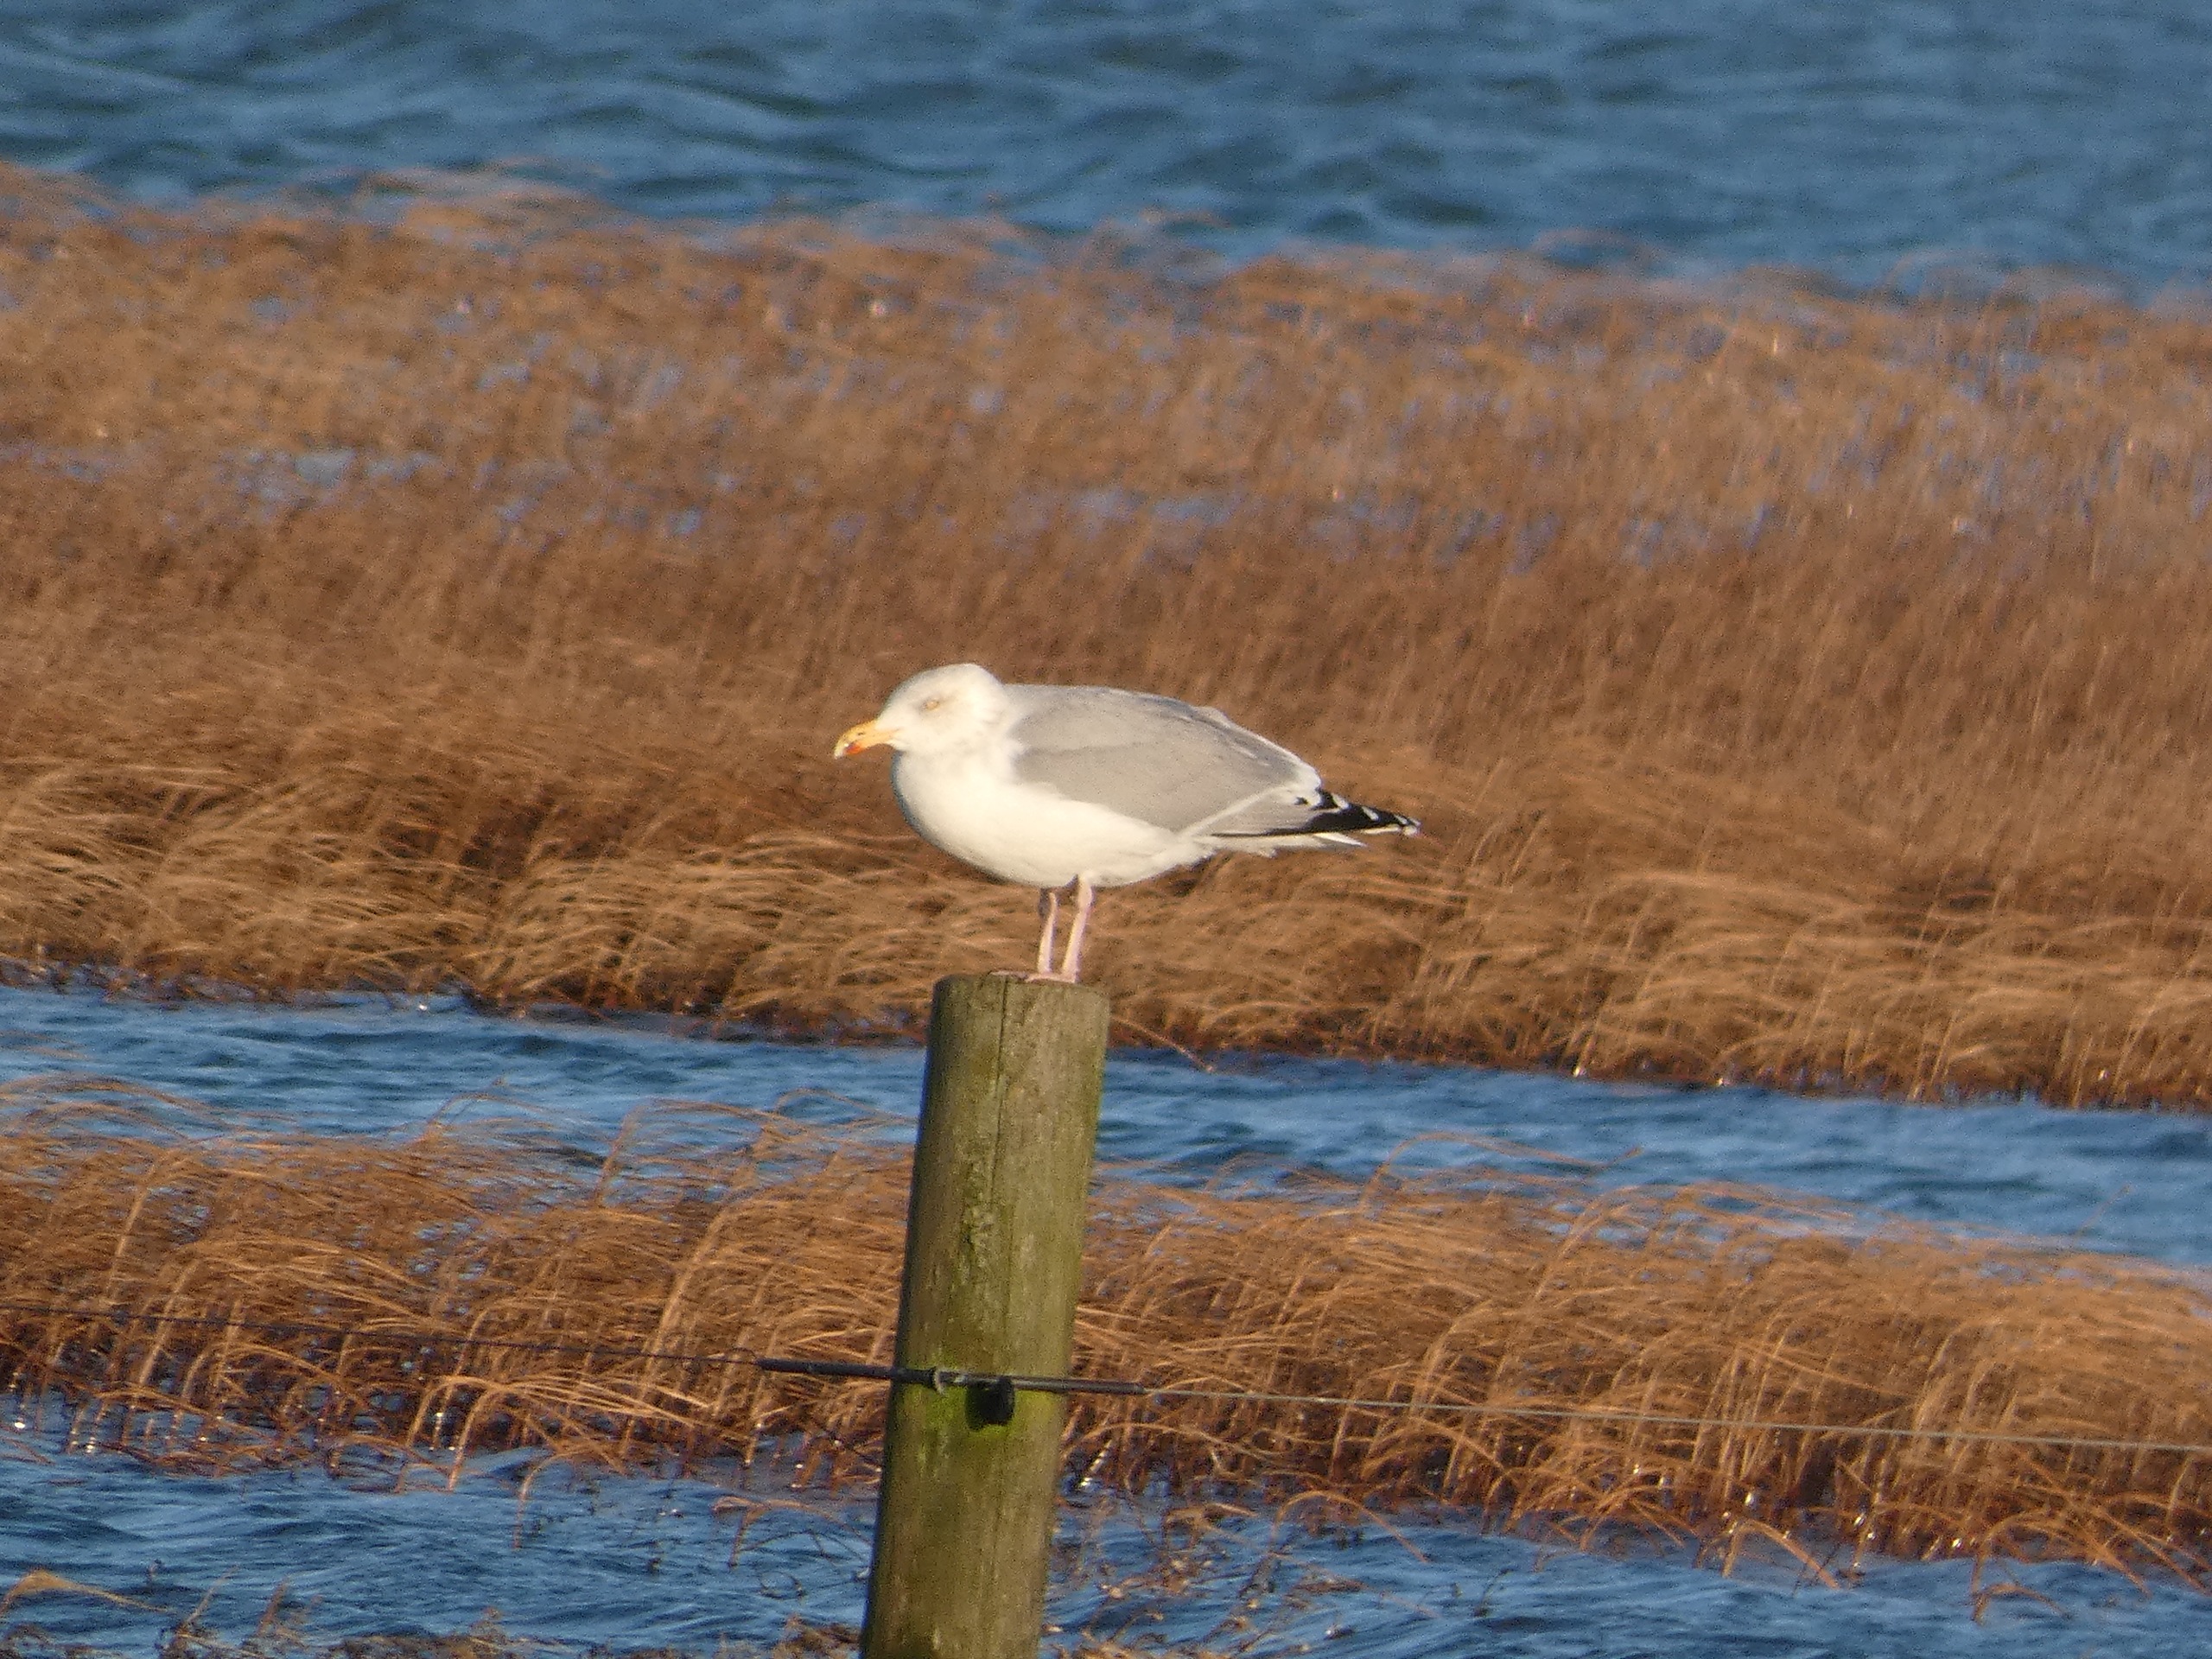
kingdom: Animalia
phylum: Chordata
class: Aves
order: Charadriiformes
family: Laridae
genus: Larus
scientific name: Larus argentatus
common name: Sølvmåge
